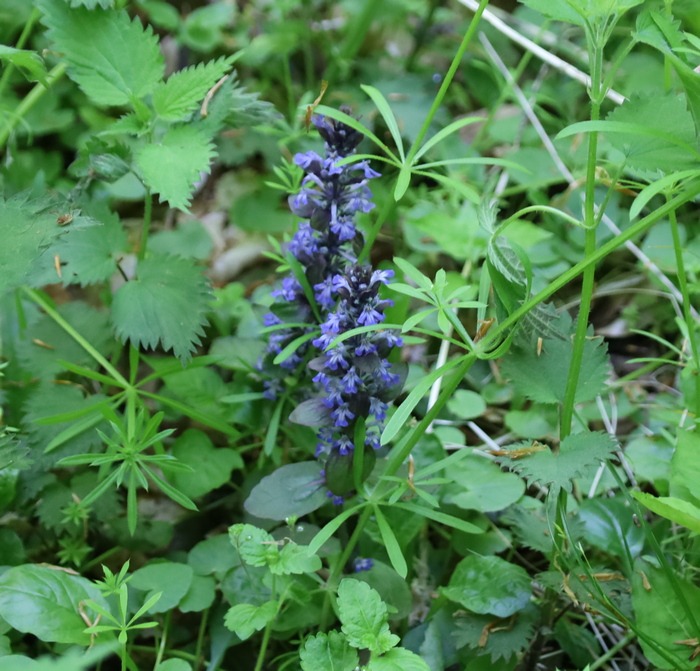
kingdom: Plantae
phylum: Tracheophyta
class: Magnoliopsida
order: Lamiales
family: Lamiaceae
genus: Ajuga
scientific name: Ajuga reptans
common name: Krybende læbeløs
